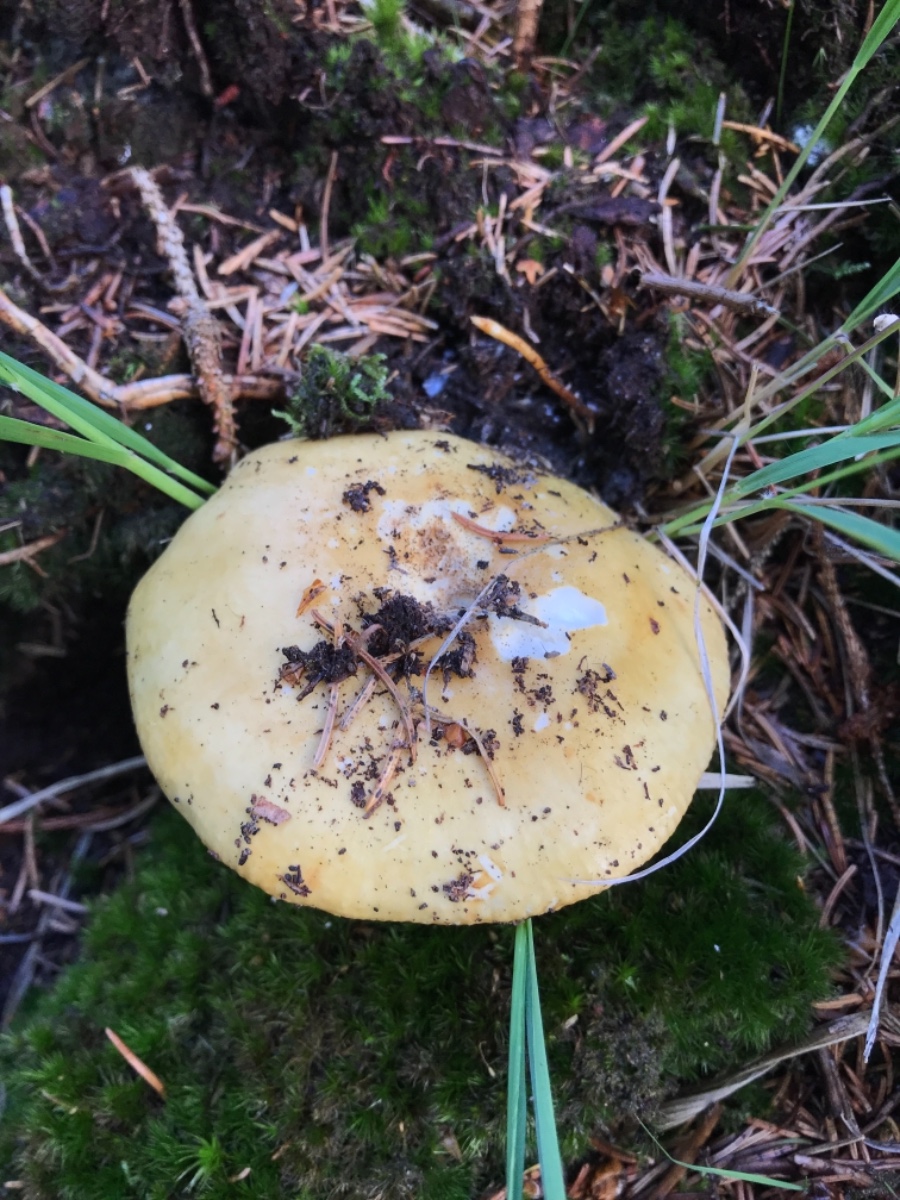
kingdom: Fungi
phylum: Basidiomycota
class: Agaricomycetes
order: Russulales
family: Russulaceae
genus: Russula
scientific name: Russula ochroleuca
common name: okkergul skørhat
